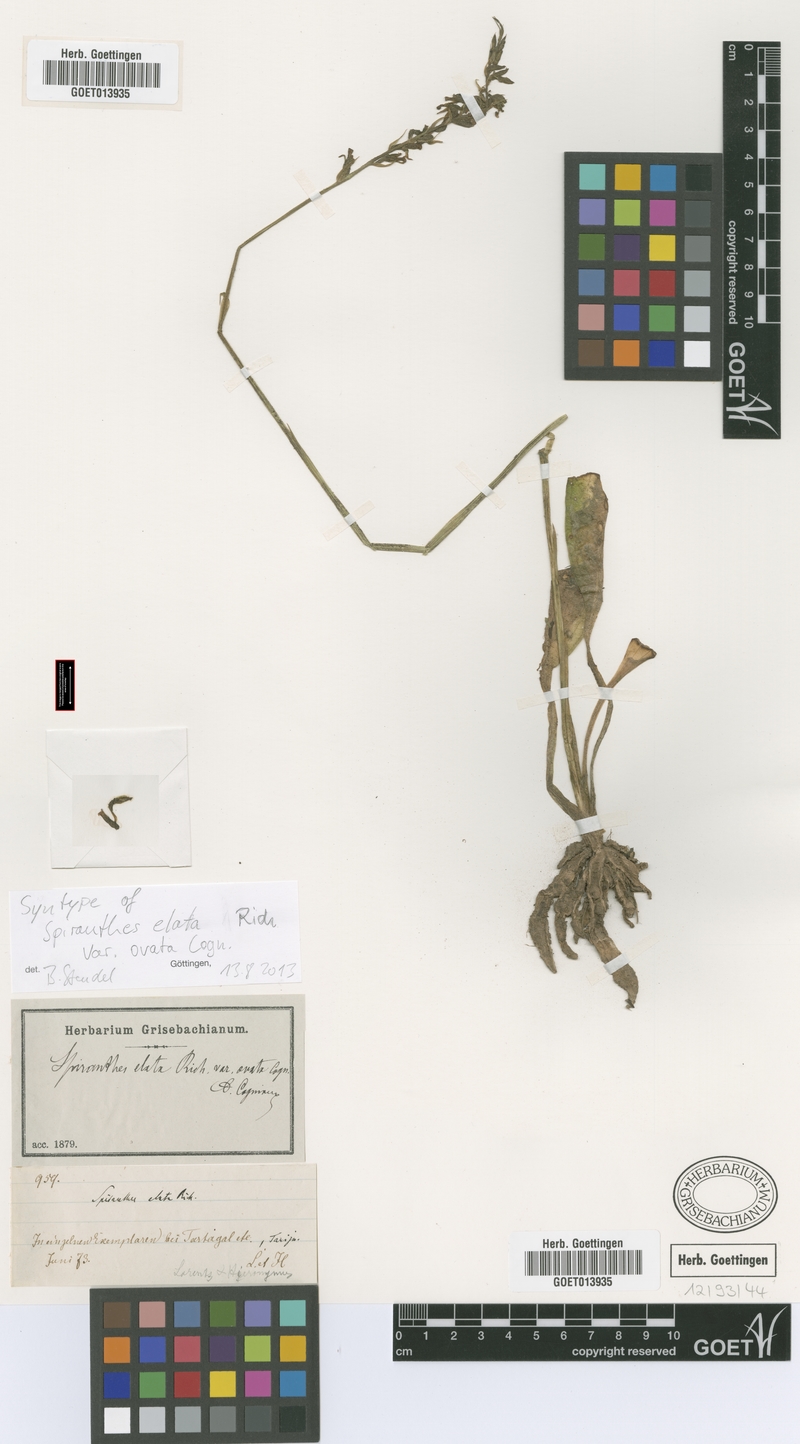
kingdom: Plantae
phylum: Tracheophyta
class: Liliopsida
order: Asparagales
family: Orchidaceae
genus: Cyclopogon
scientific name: Cyclopogon elatus
